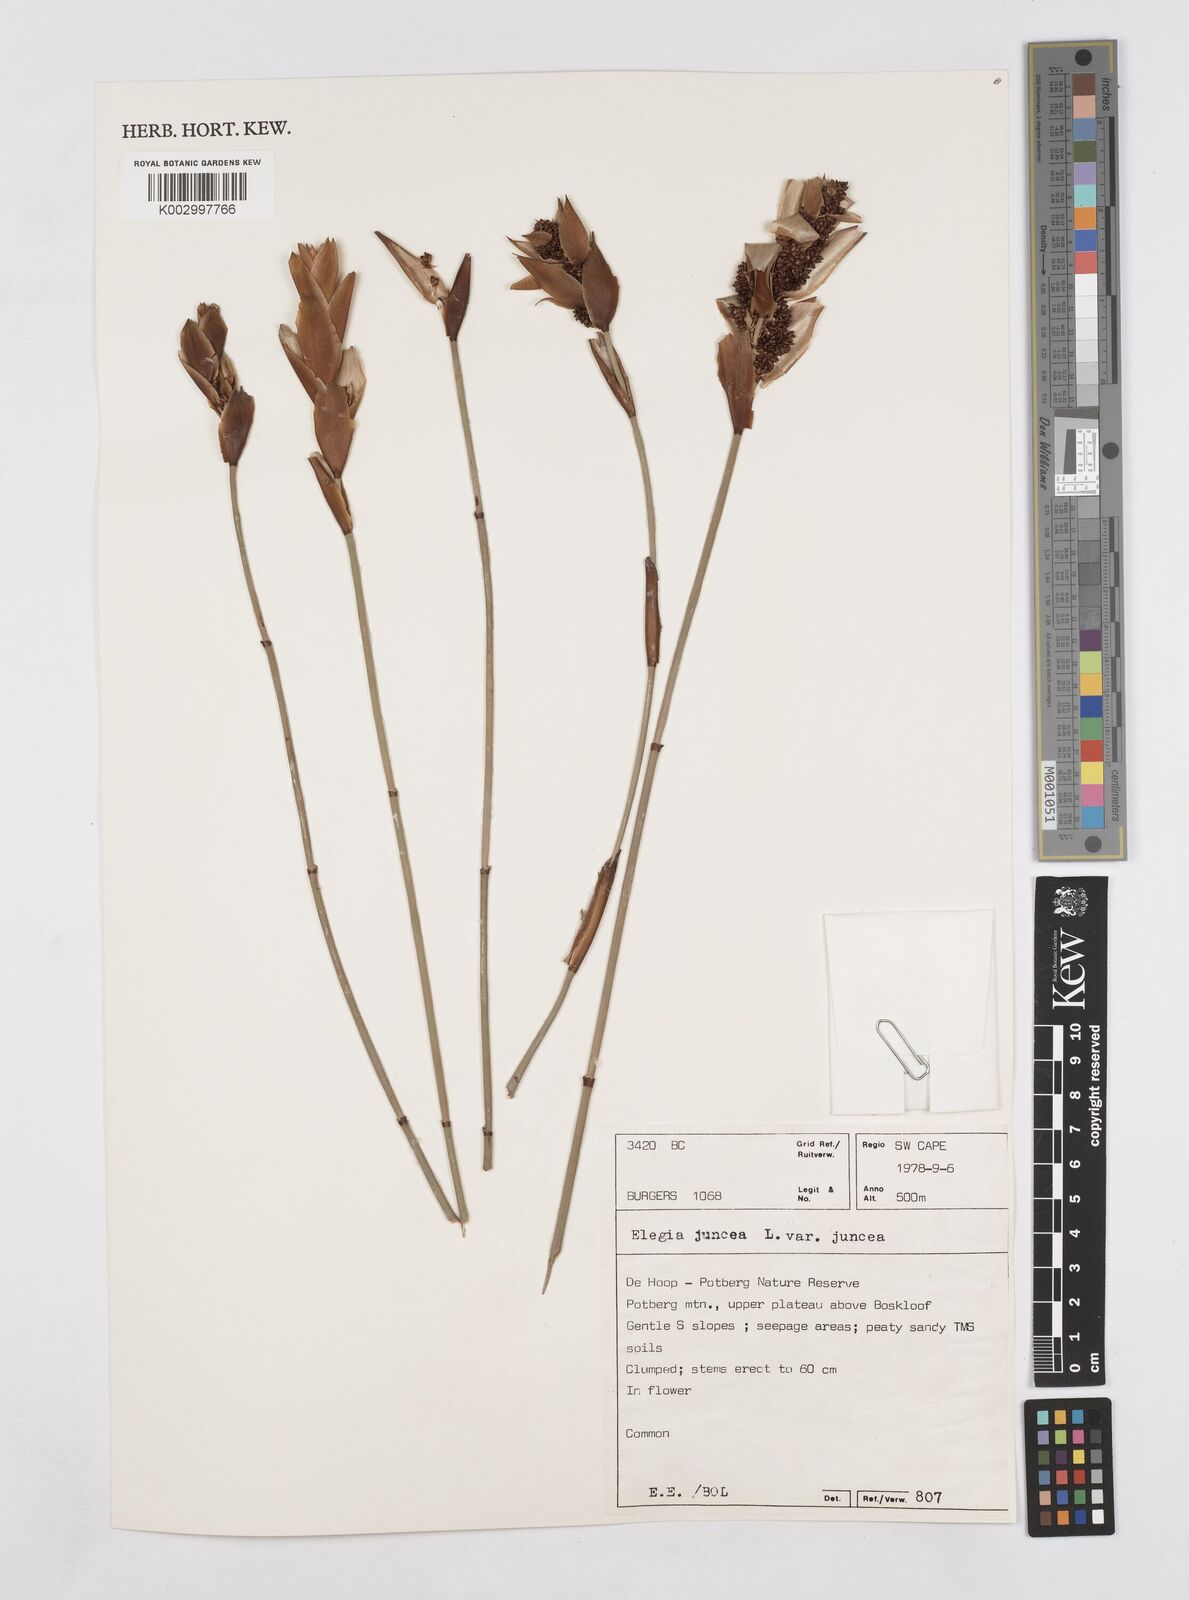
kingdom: Plantae
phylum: Tracheophyta
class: Liliopsida
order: Poales
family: Restionaceae
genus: Elegia
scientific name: Elegia juncea
